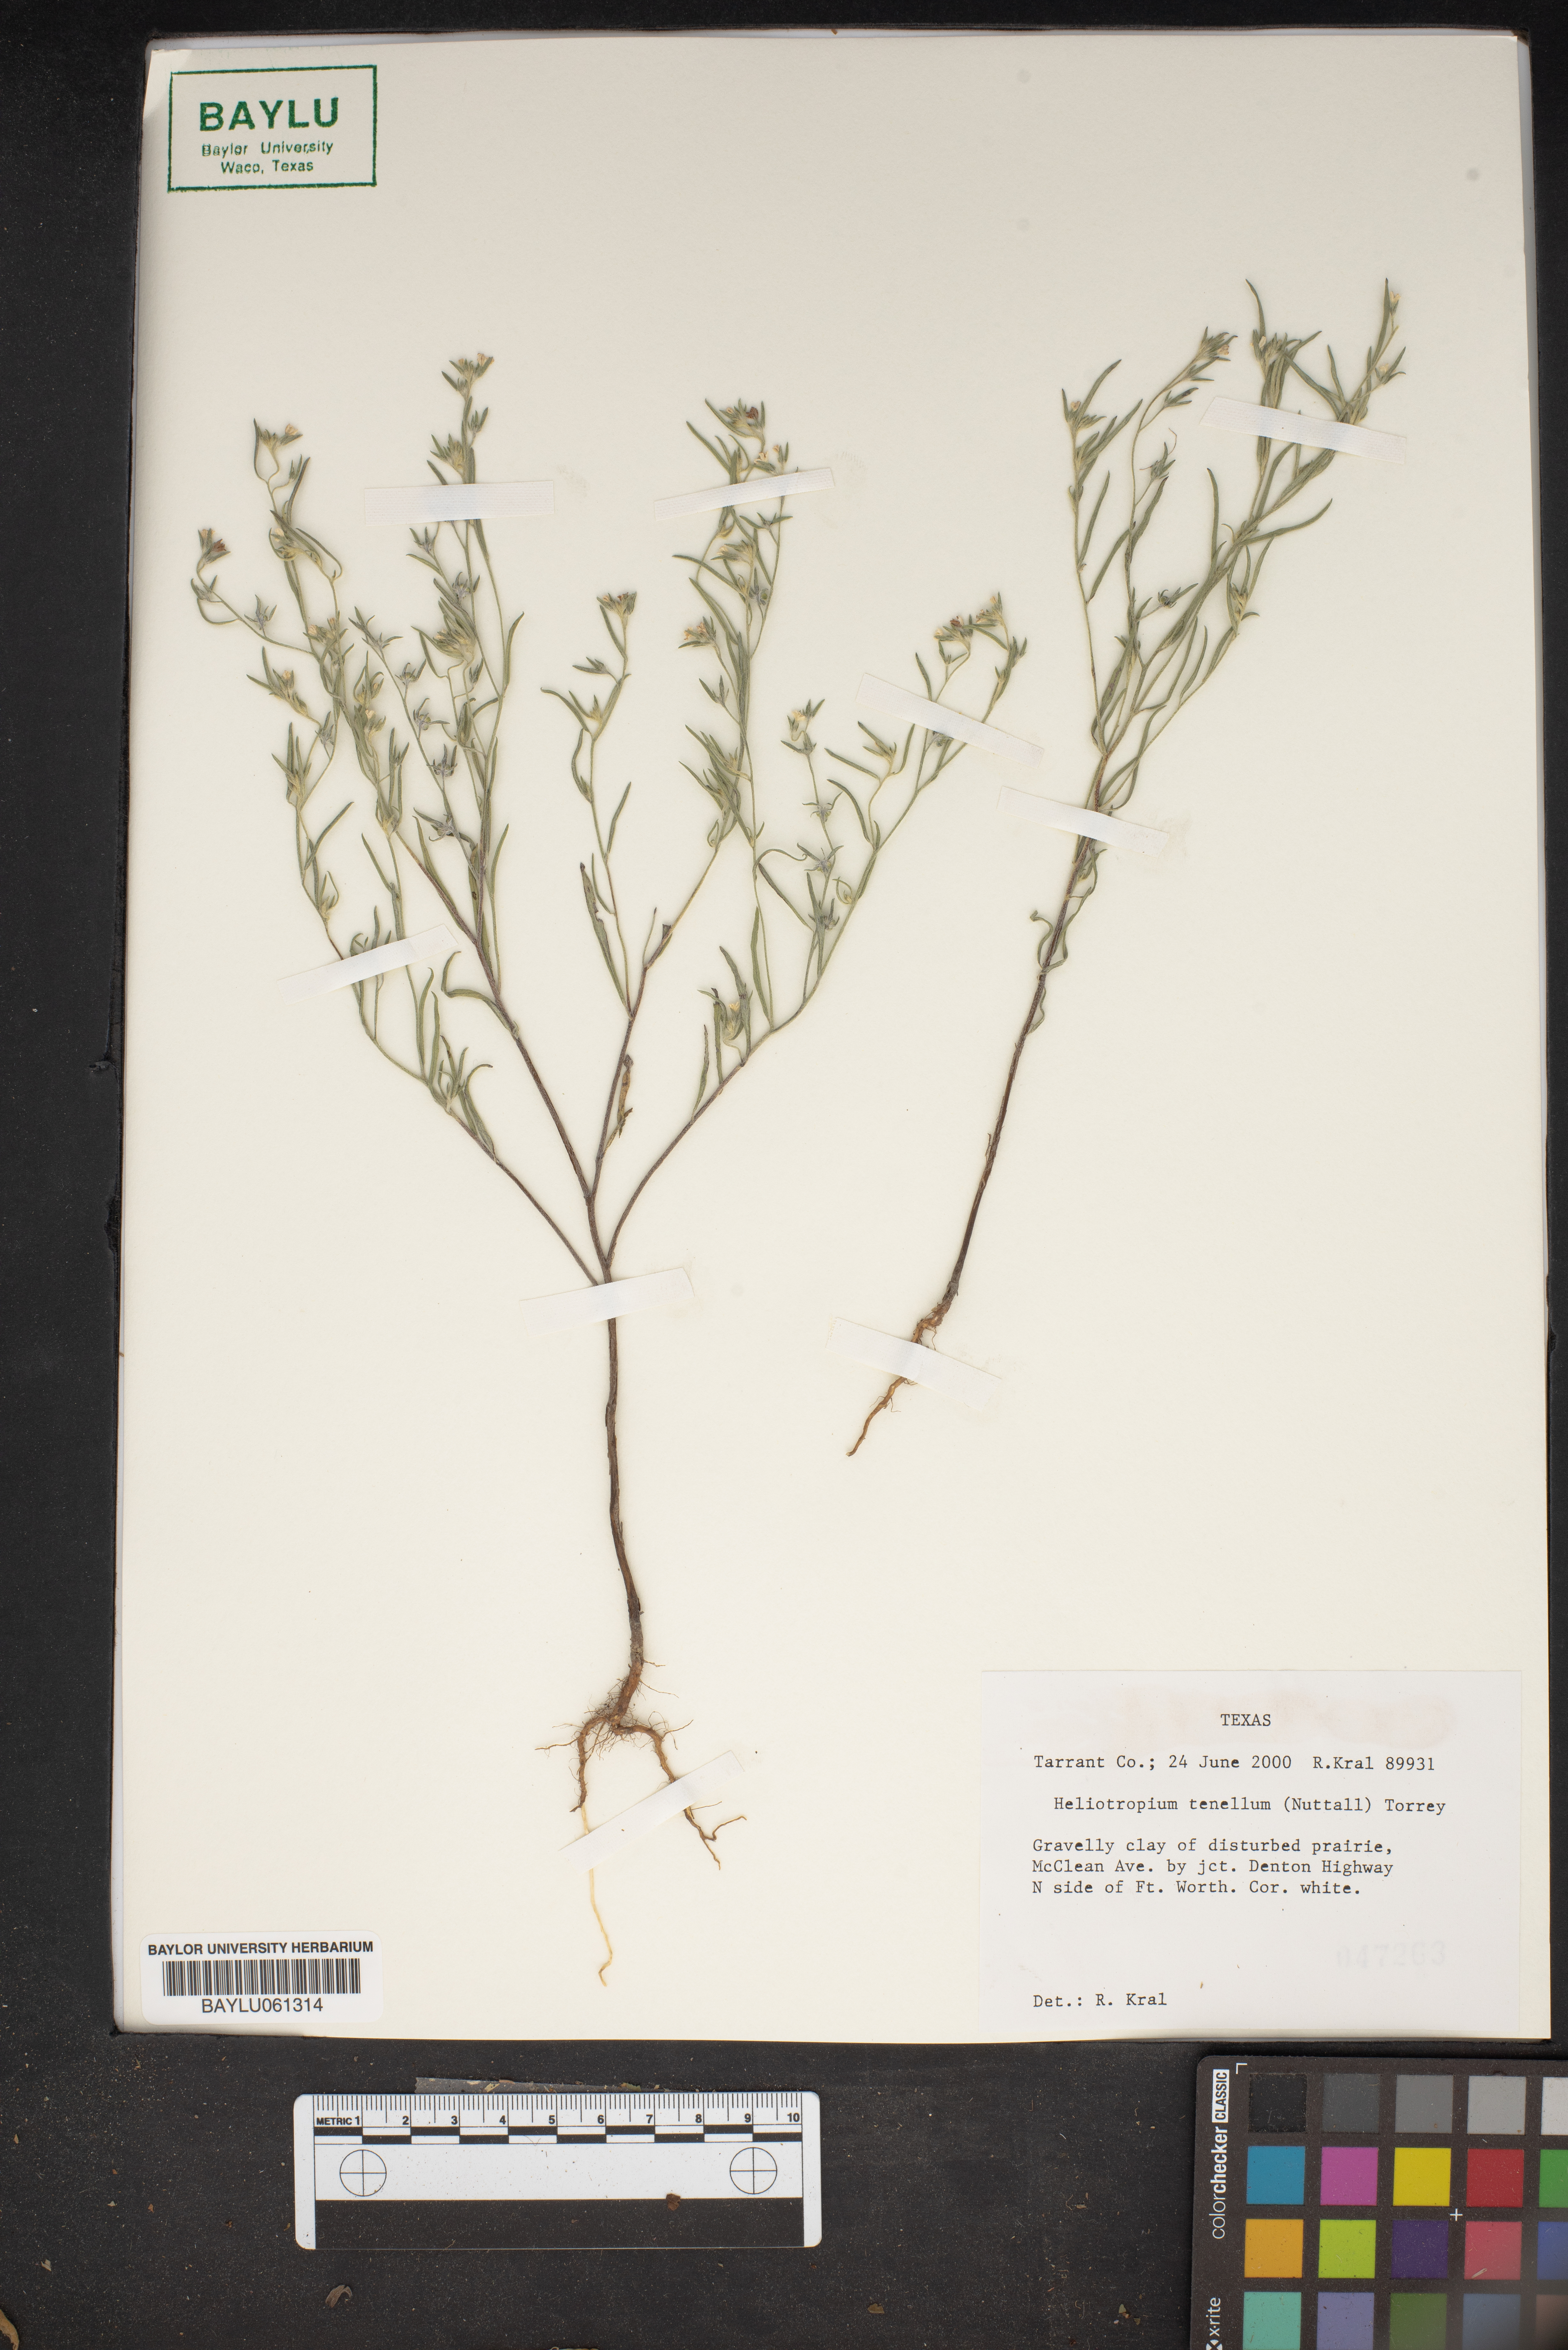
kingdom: Plantae
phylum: Tracheophyta
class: Magnoliopsida
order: Boraginales
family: Heliotropiaceae
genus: Euploca
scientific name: Euploca tenella
